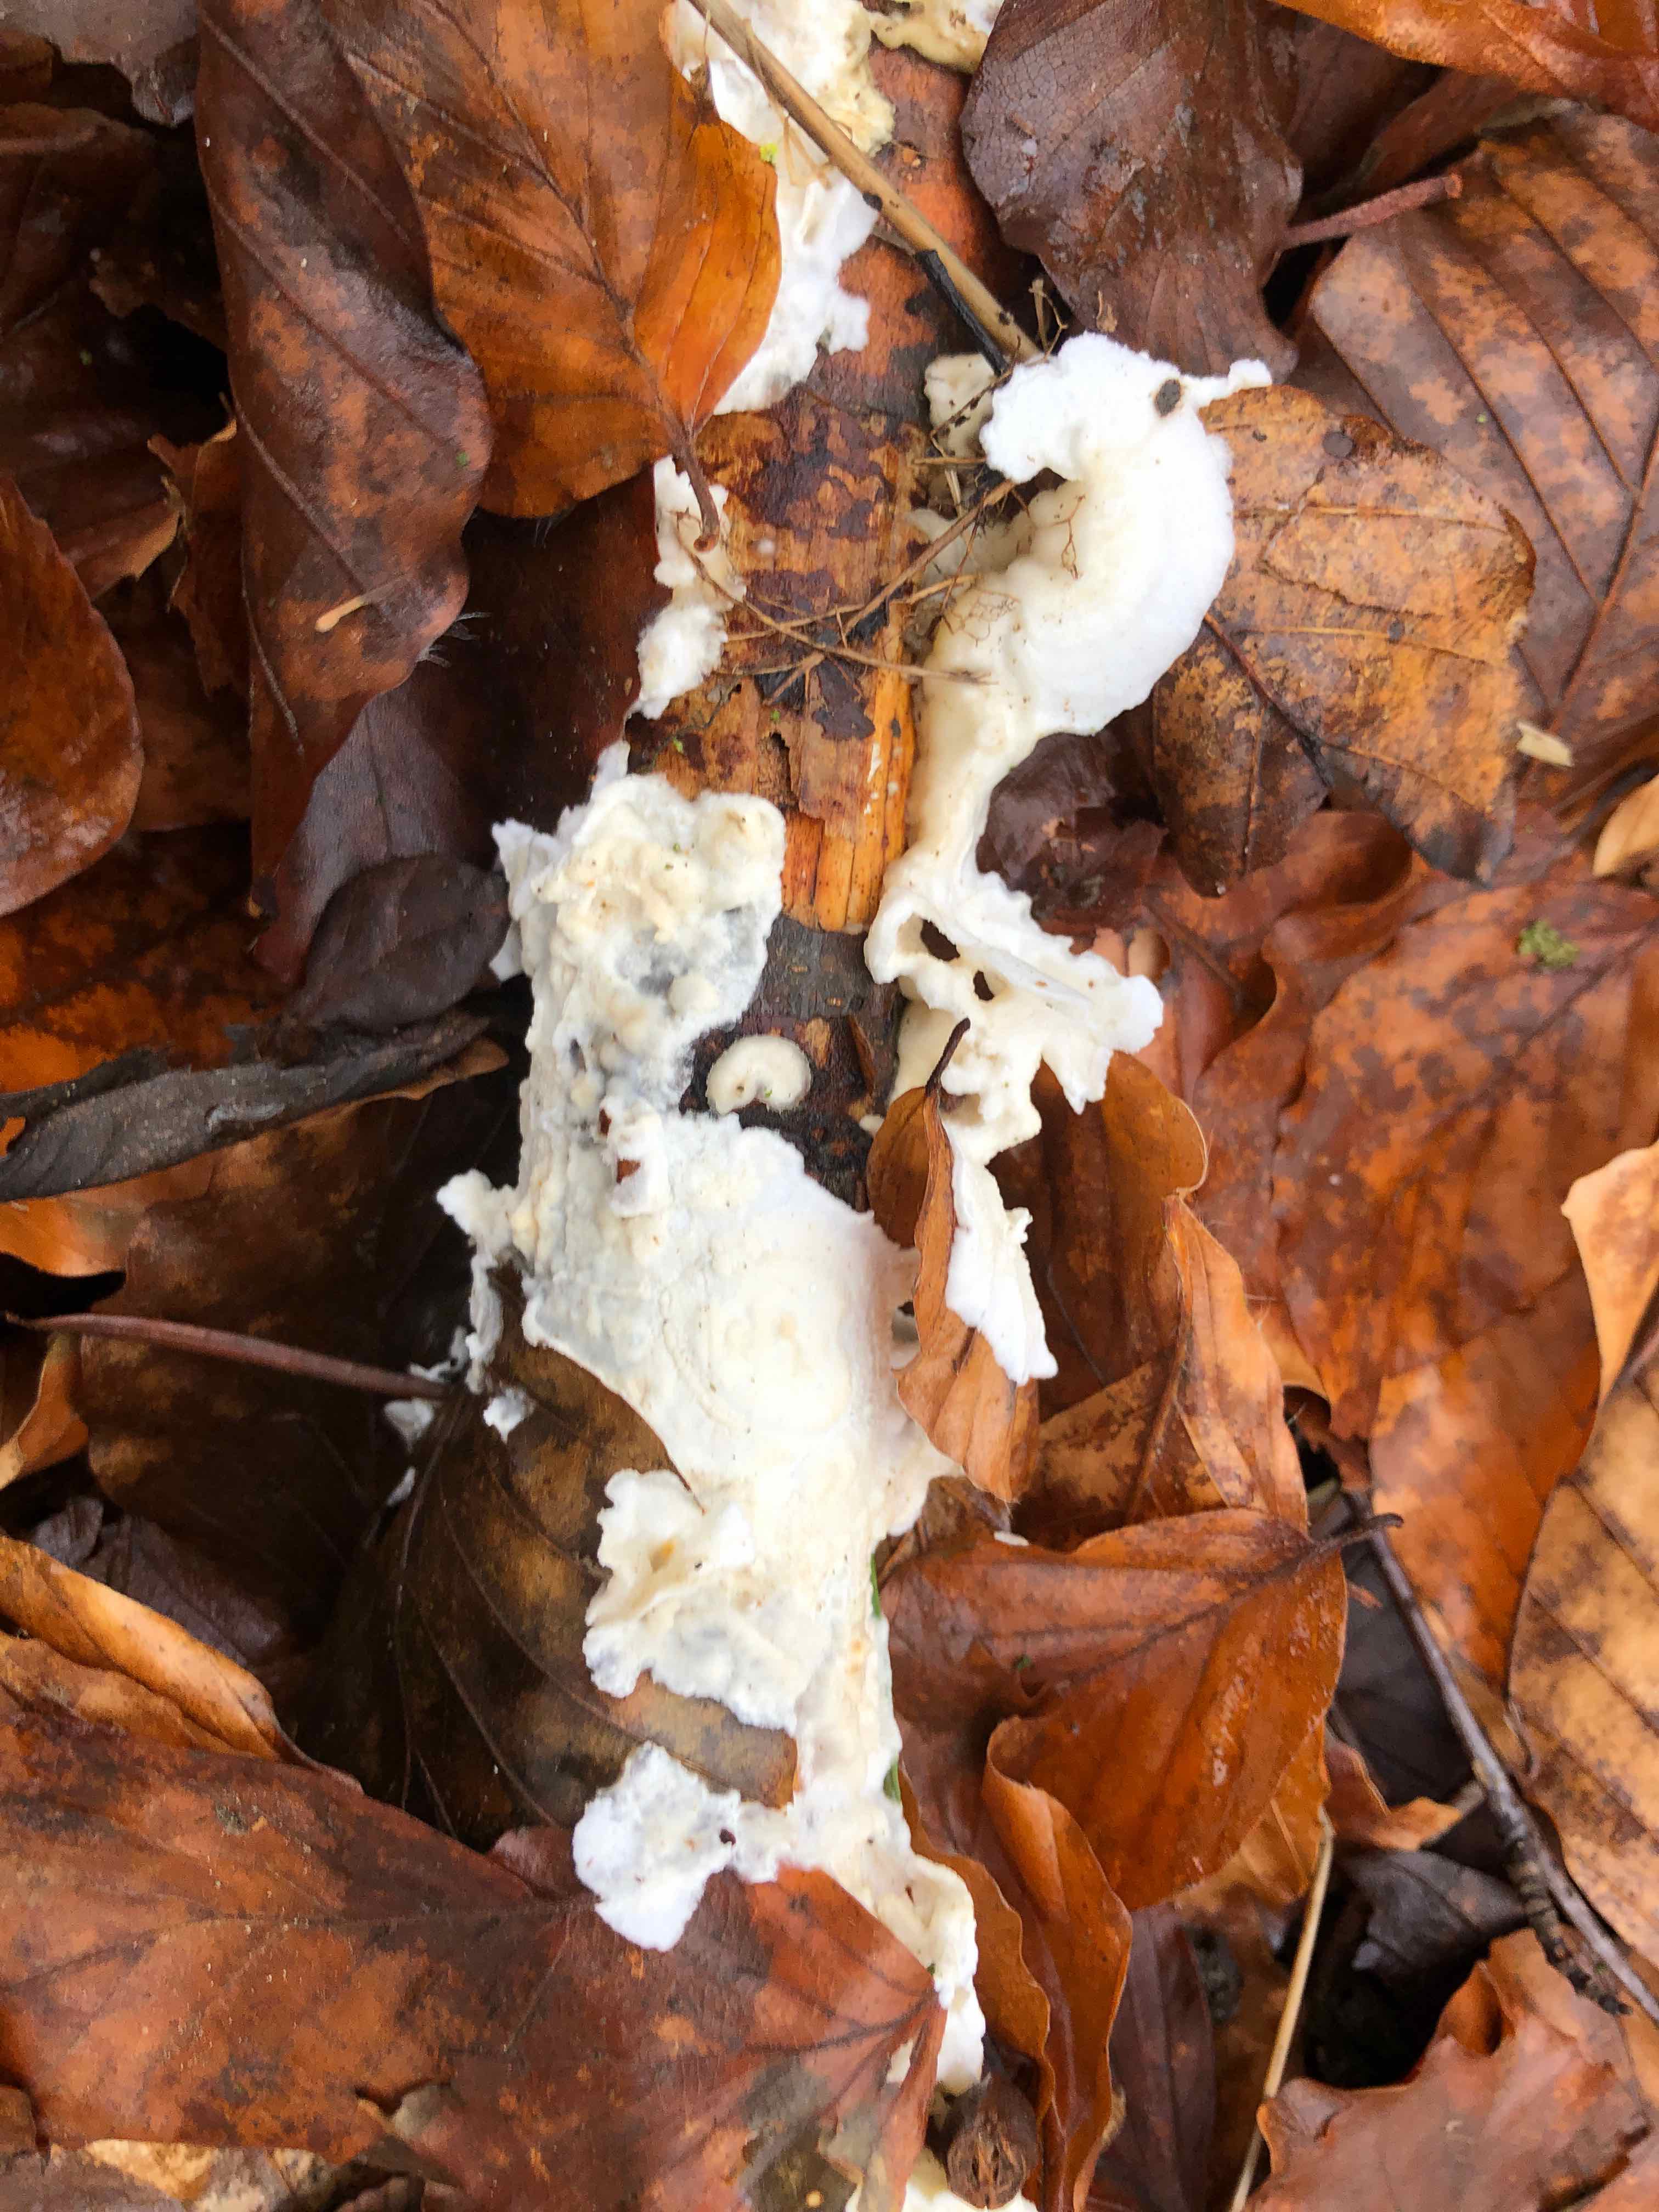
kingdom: Fungi
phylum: Basidiomycota
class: Agaricomycetes
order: Polyporales
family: Irpicaceae
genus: Byssomerulius
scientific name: Byssomerulius corium
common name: læder-åresvamp
